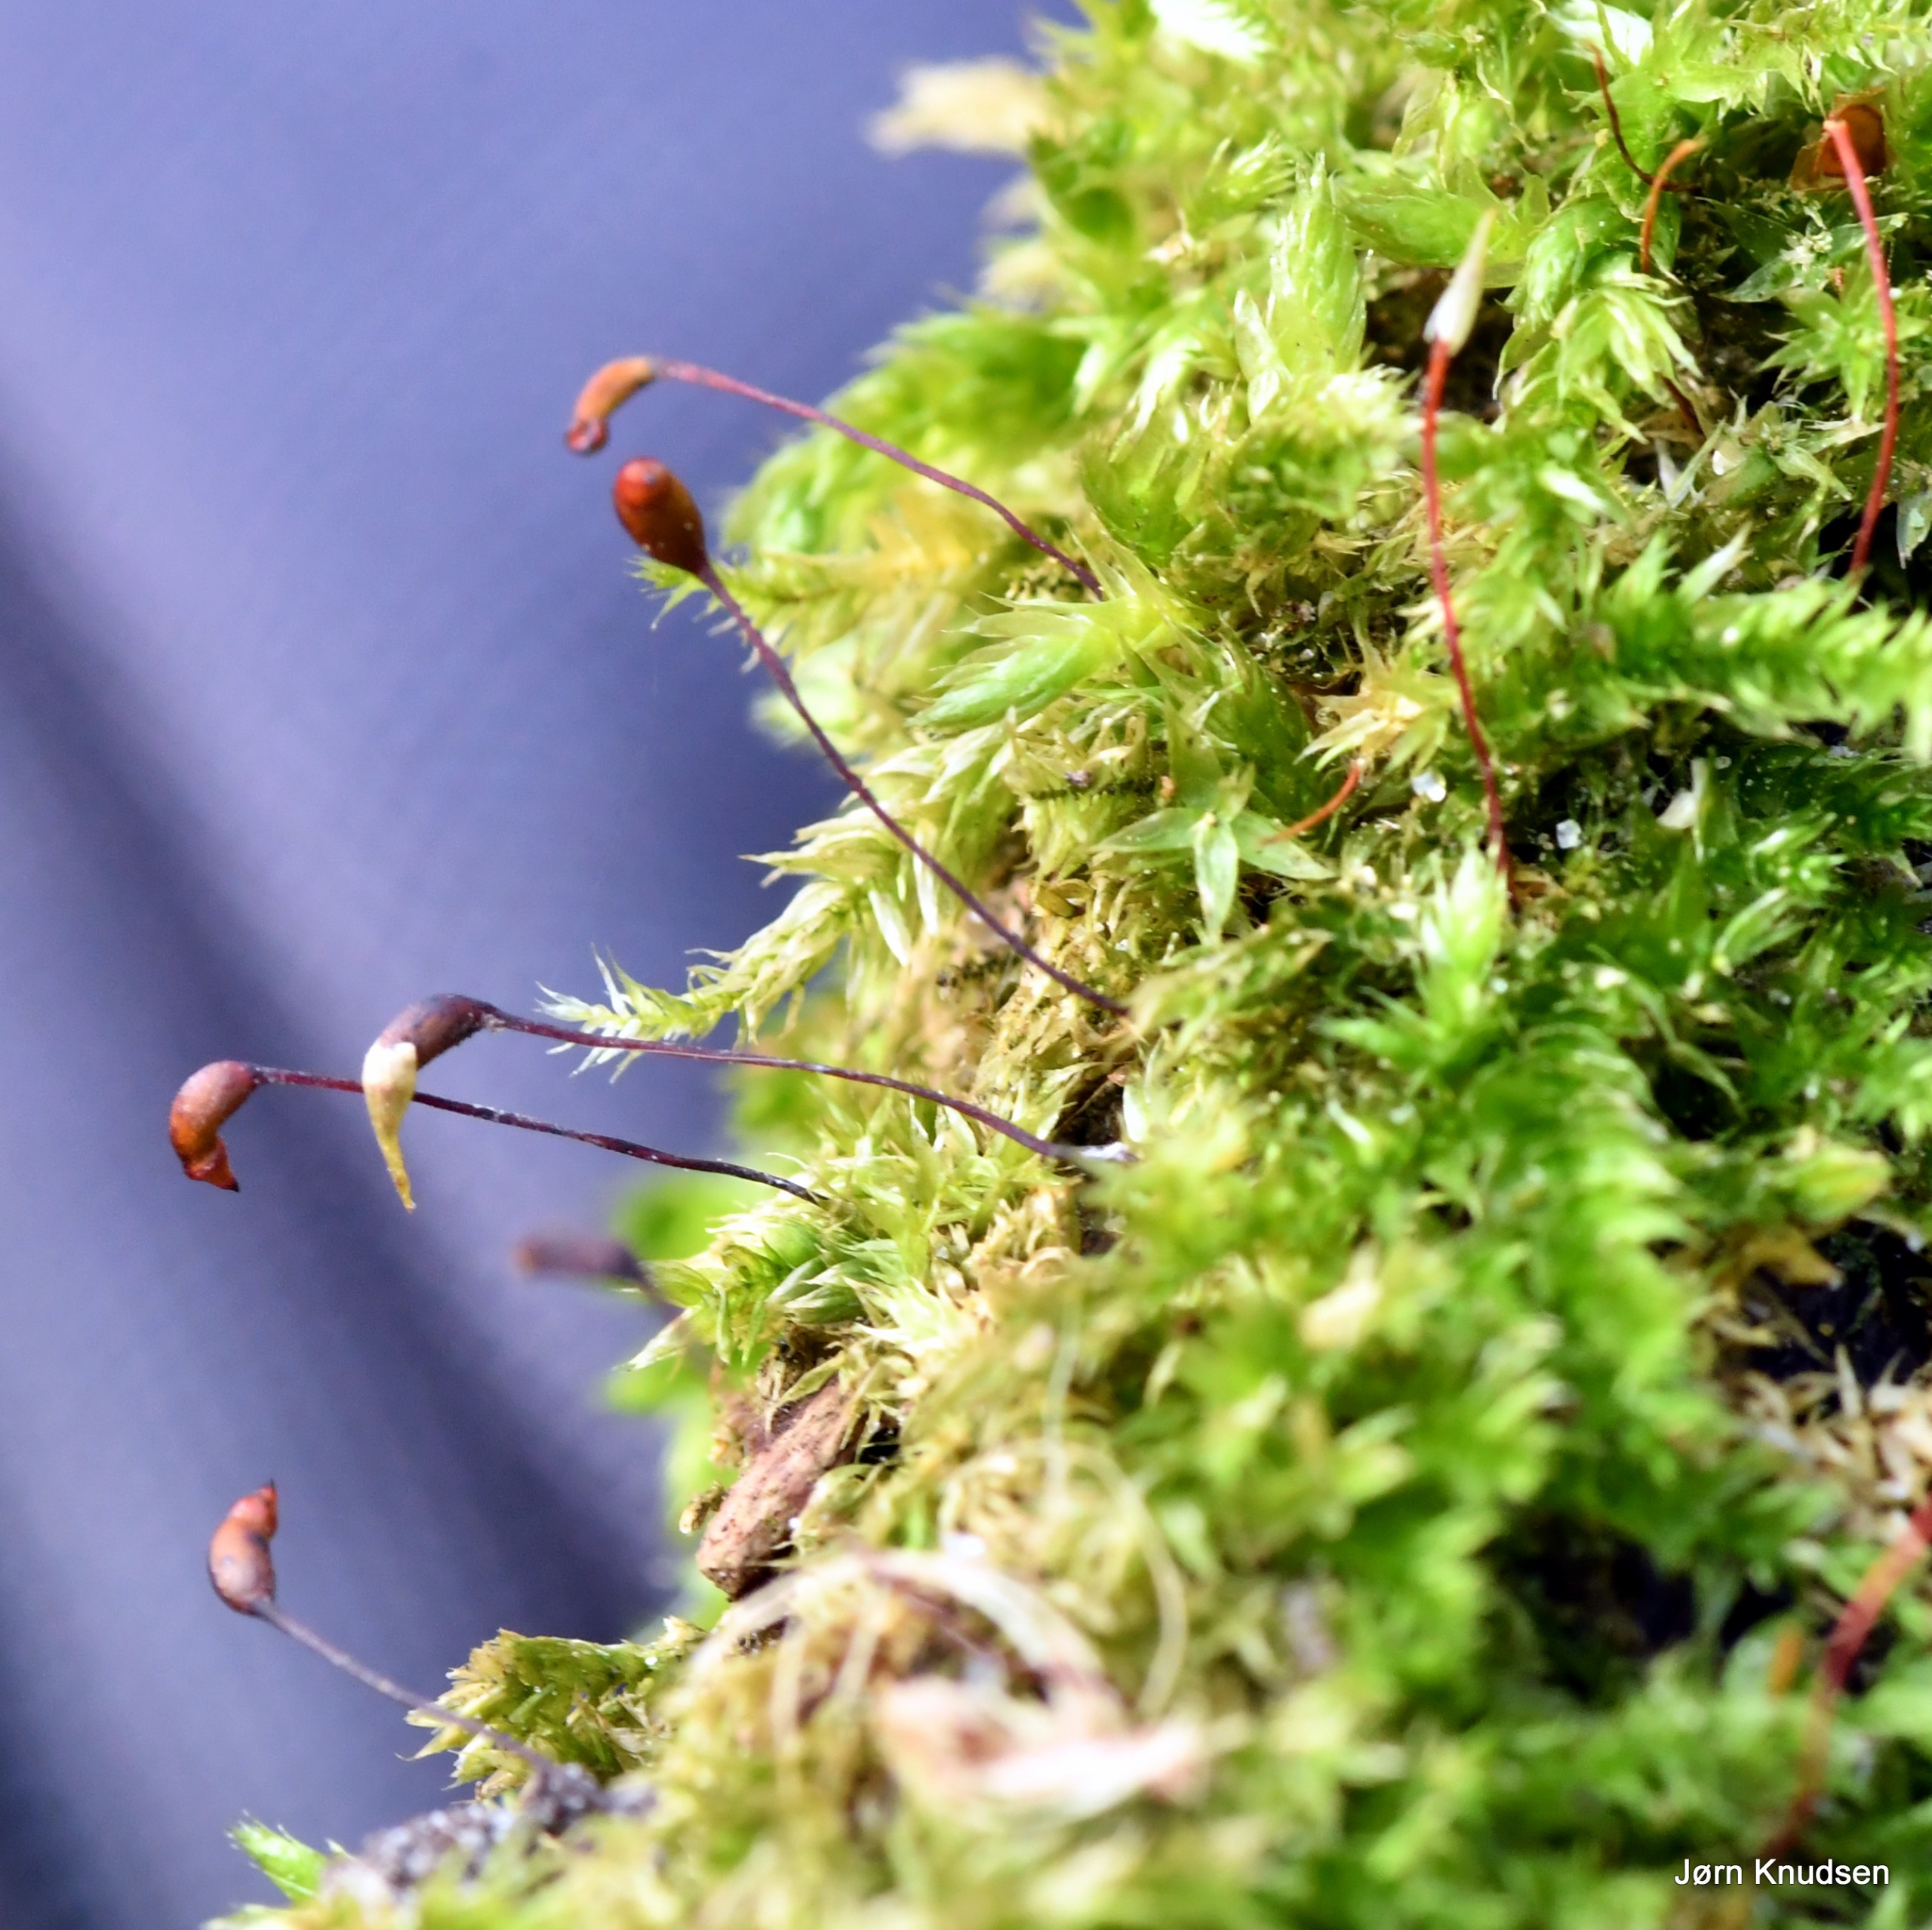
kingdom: Plantae
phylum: Bryophyta
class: Bryopsida
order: Hypnales
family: Brachytheciaceae
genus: Brachythecium
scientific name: Brachythecium rutabulum
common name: Almindelig kortkapsel
